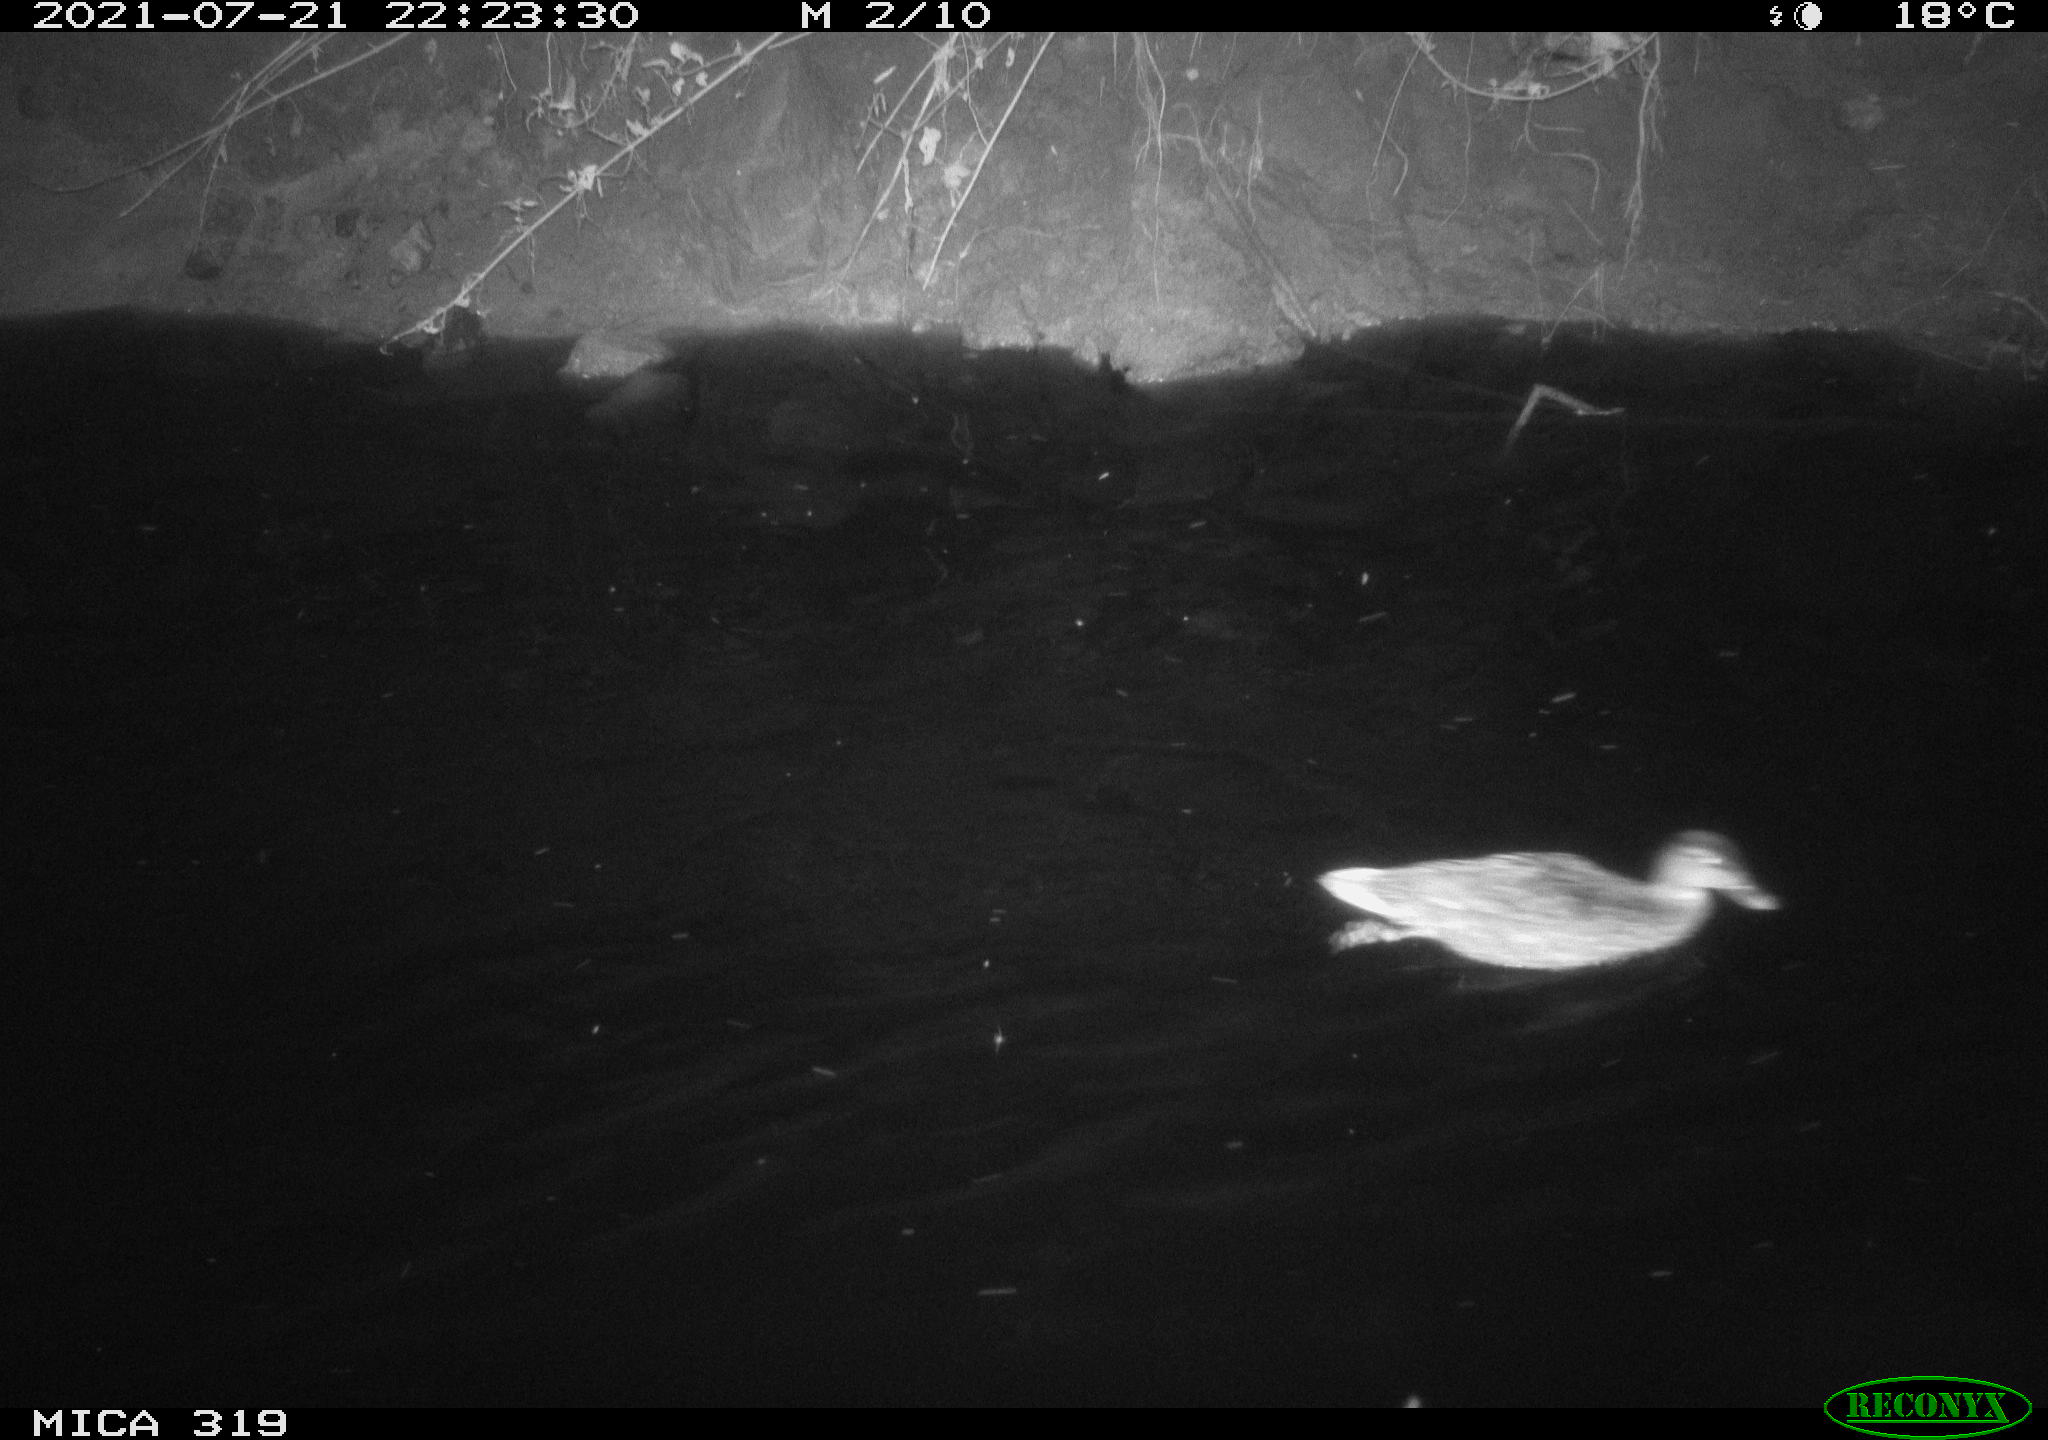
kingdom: Animalia
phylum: Chordata
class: Aves
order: Anseriformes
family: Anatidae
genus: Anas
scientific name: Anas platyrhynchos
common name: Mallard
